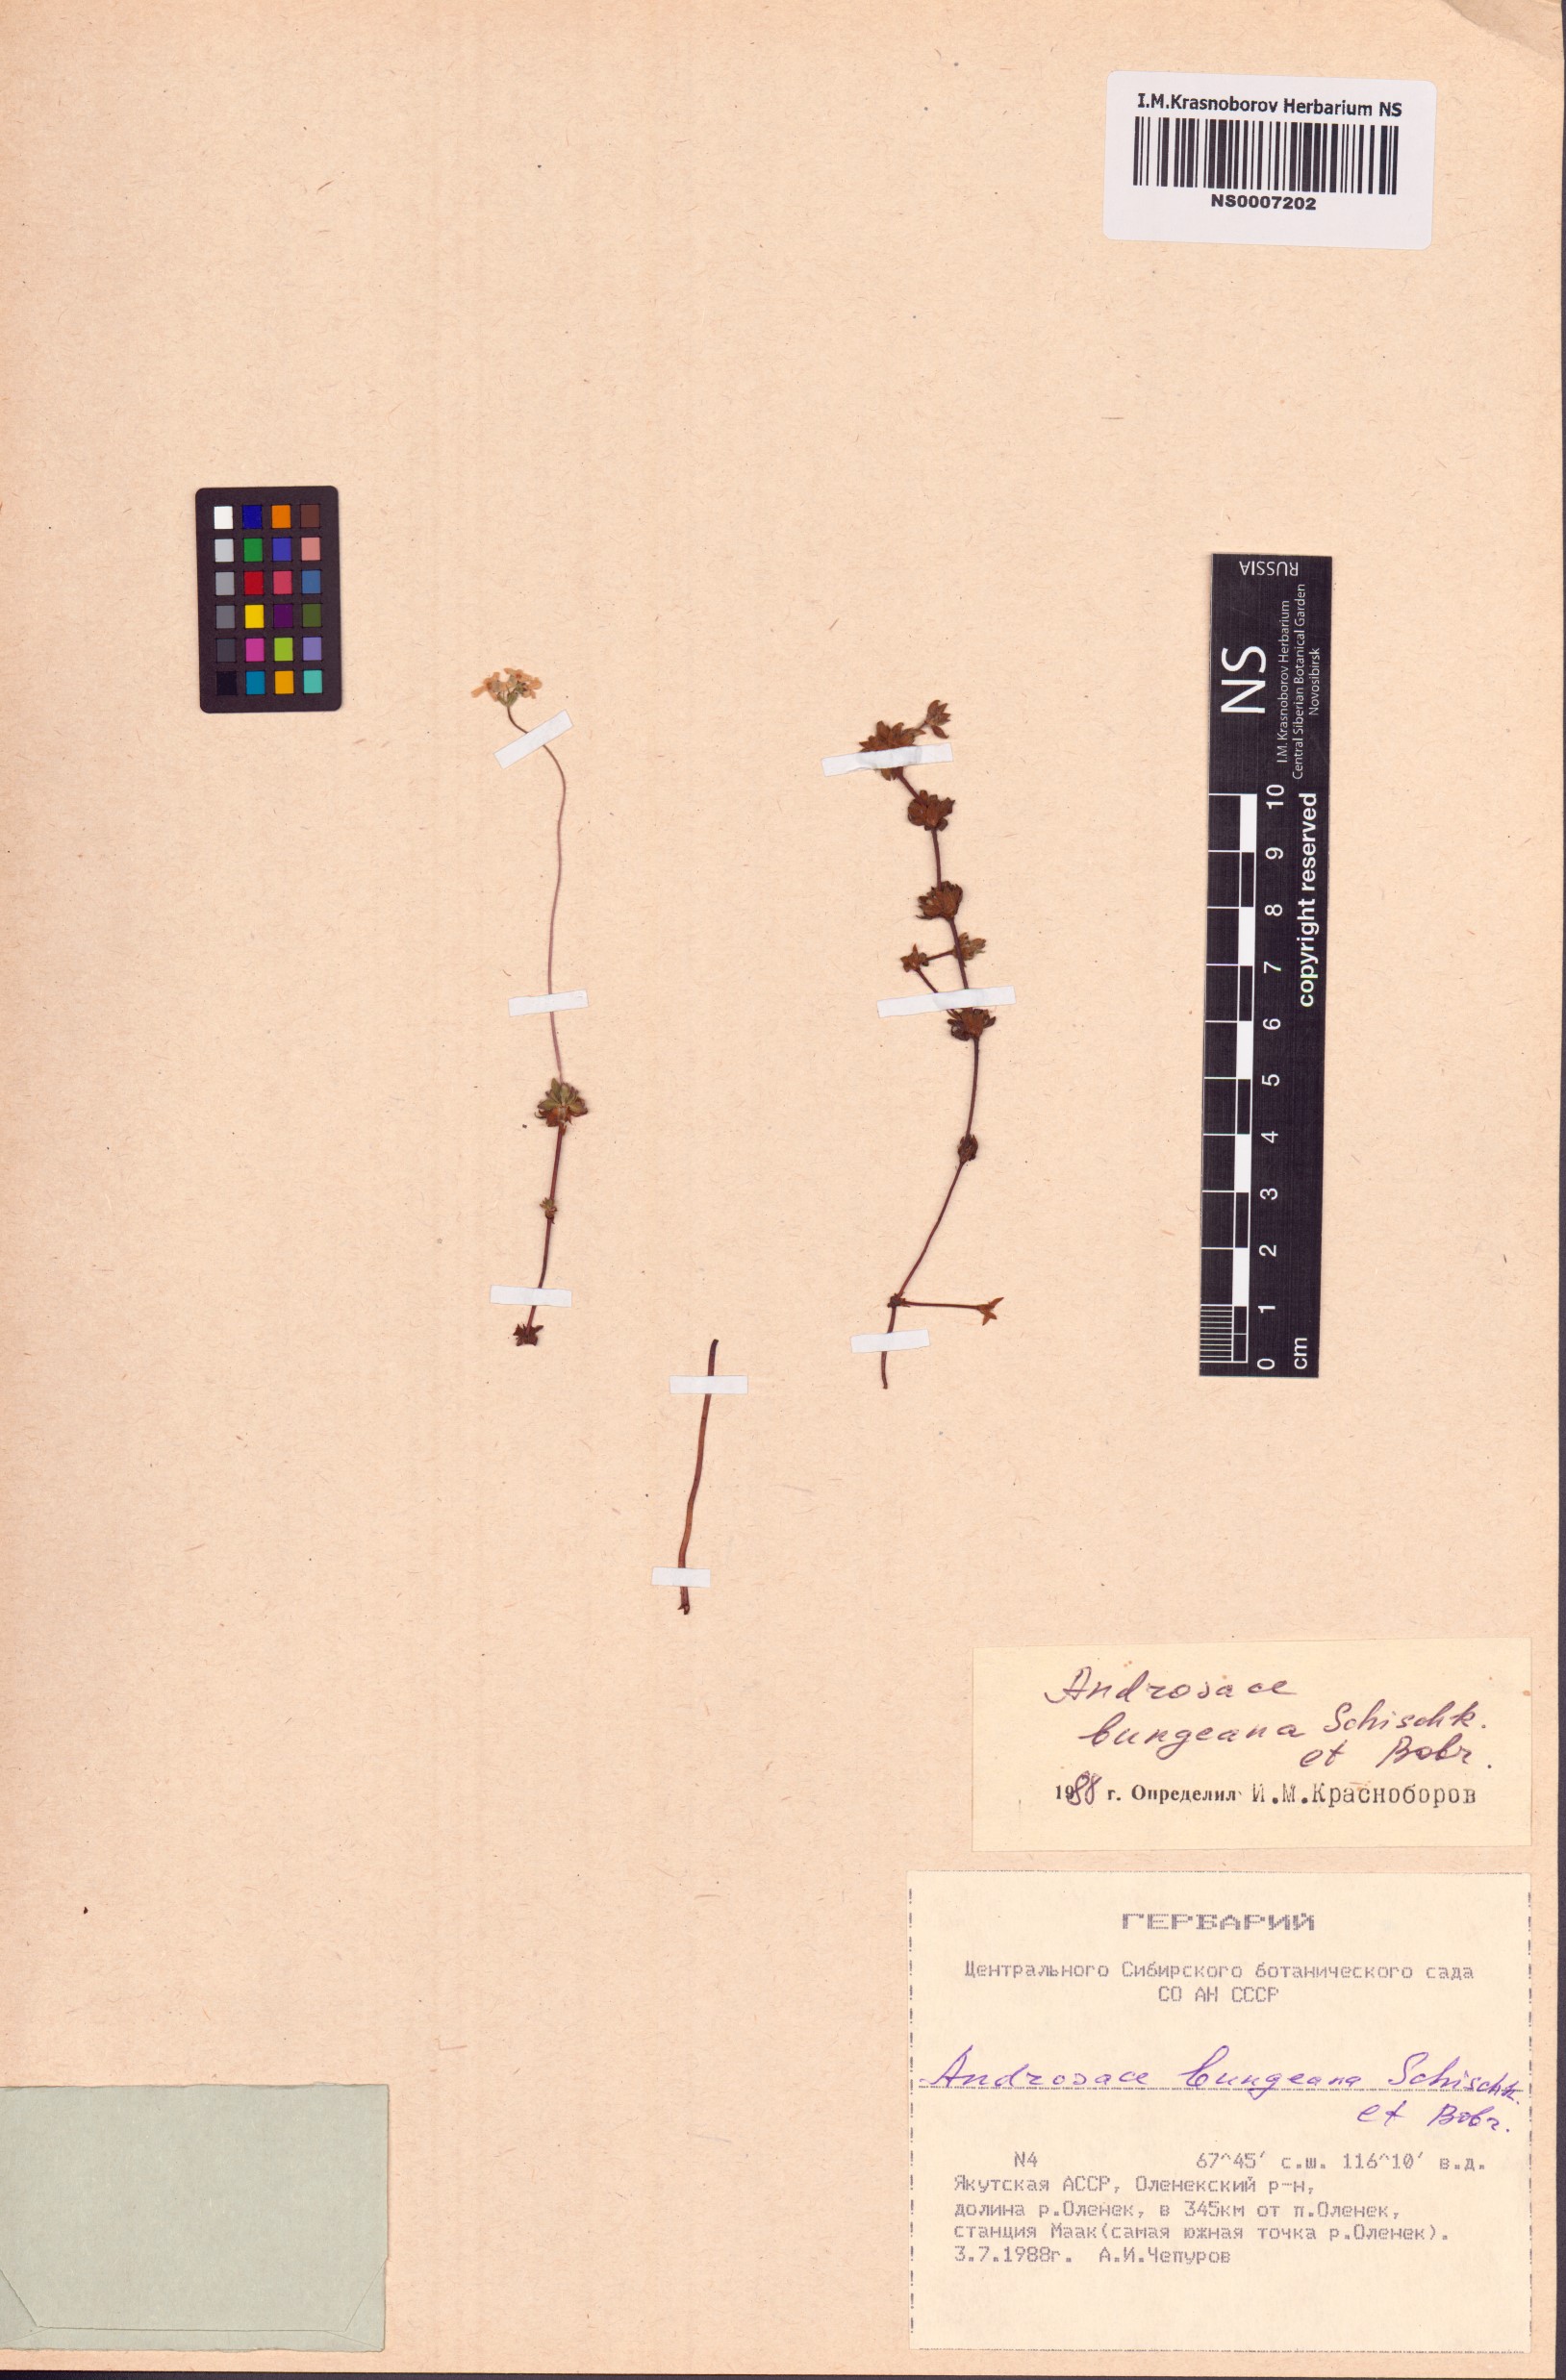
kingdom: Plantae
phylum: Tracheophyta
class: Magnoliopsida
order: Ericales
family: Primulaceae
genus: Androsace
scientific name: Androsace bungeana
